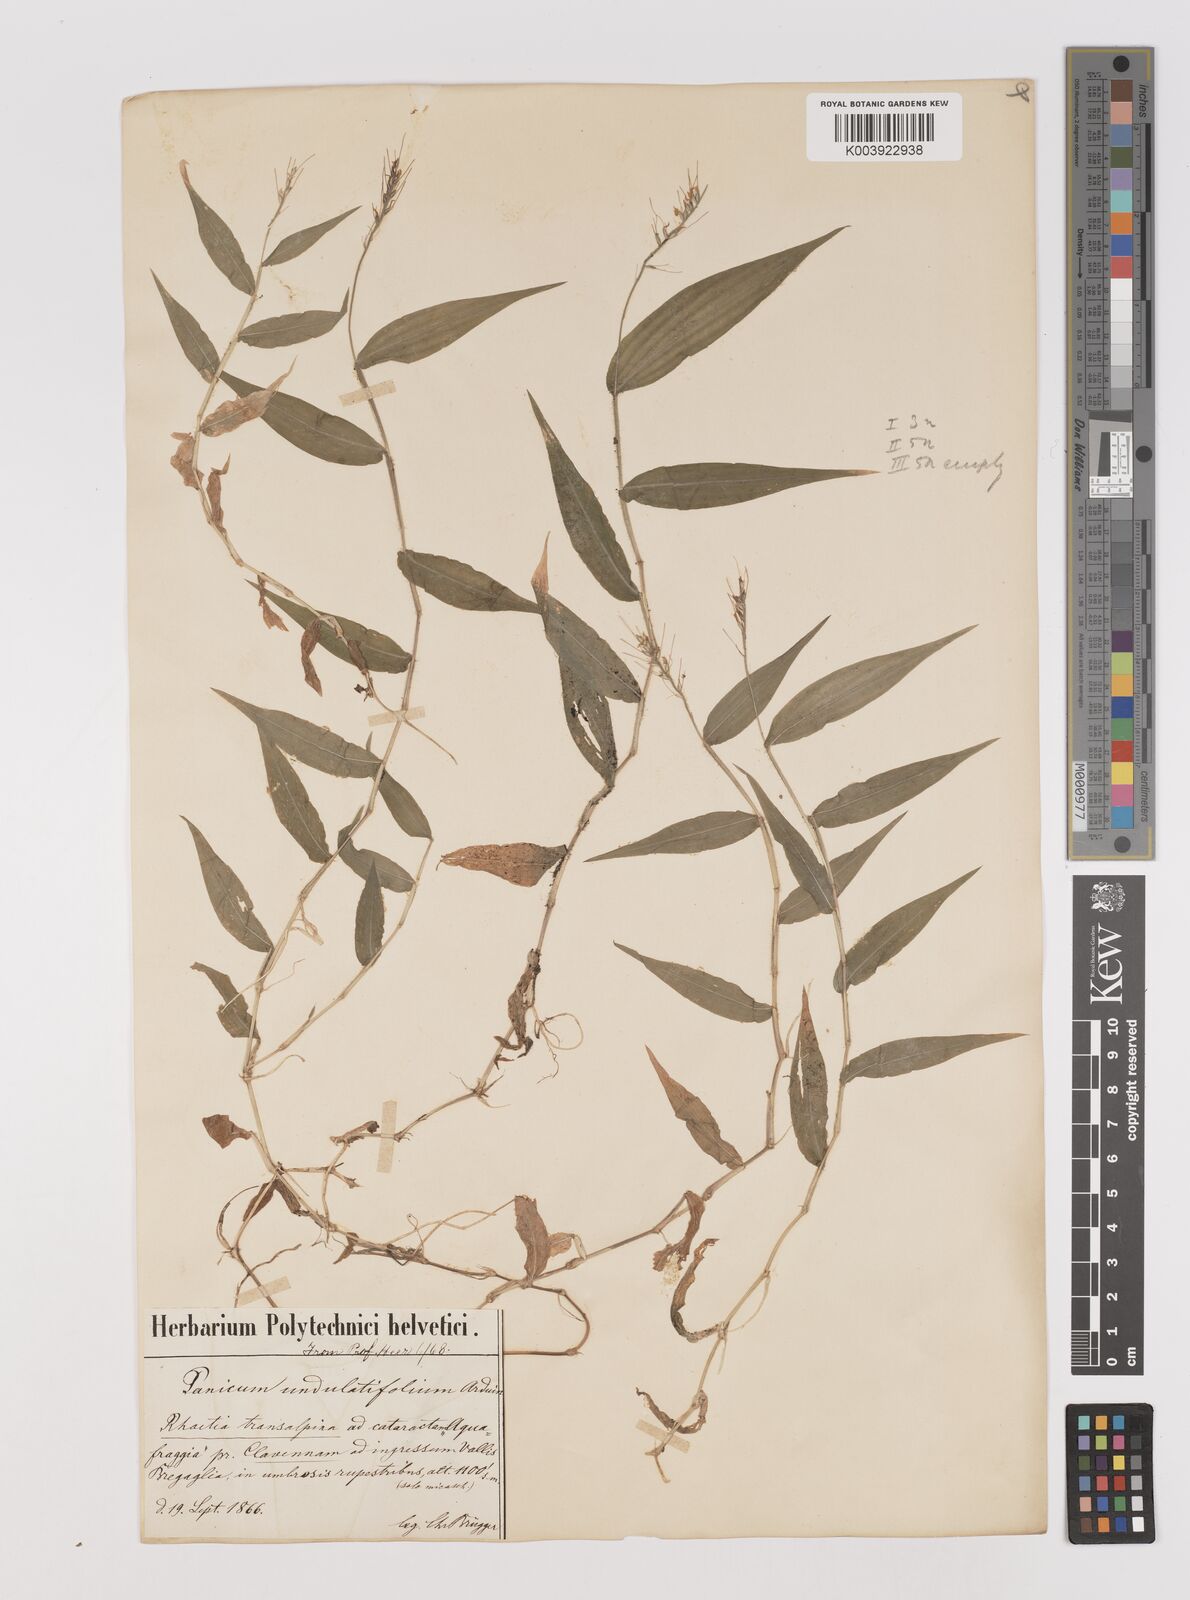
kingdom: Plantae
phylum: Tracheophyta
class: Liliopsida
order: Poales
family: Poaceae
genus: Oplismenus
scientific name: Oplismenus undulatifolius
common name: Wavyleaf basketgrass
